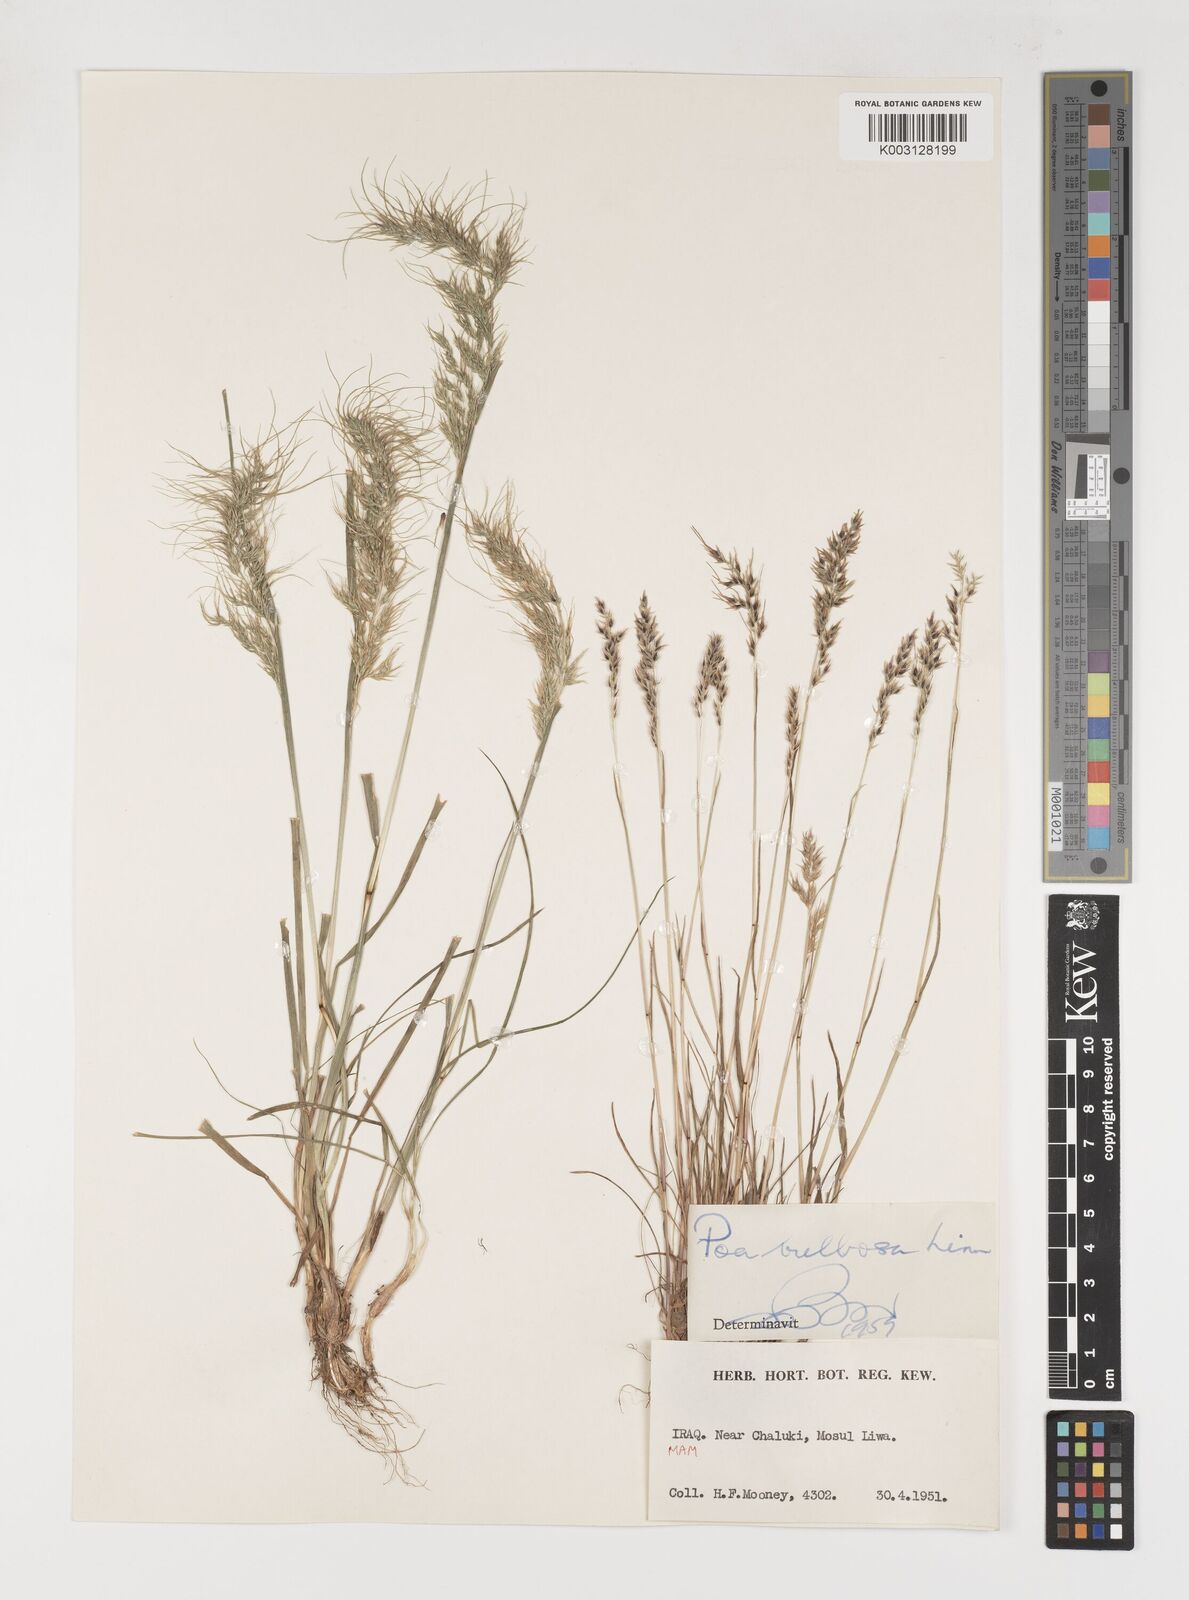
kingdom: Plantae
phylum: Tracheophyta
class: Liliopsida
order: Poales
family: Poaceae
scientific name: Poaceae
